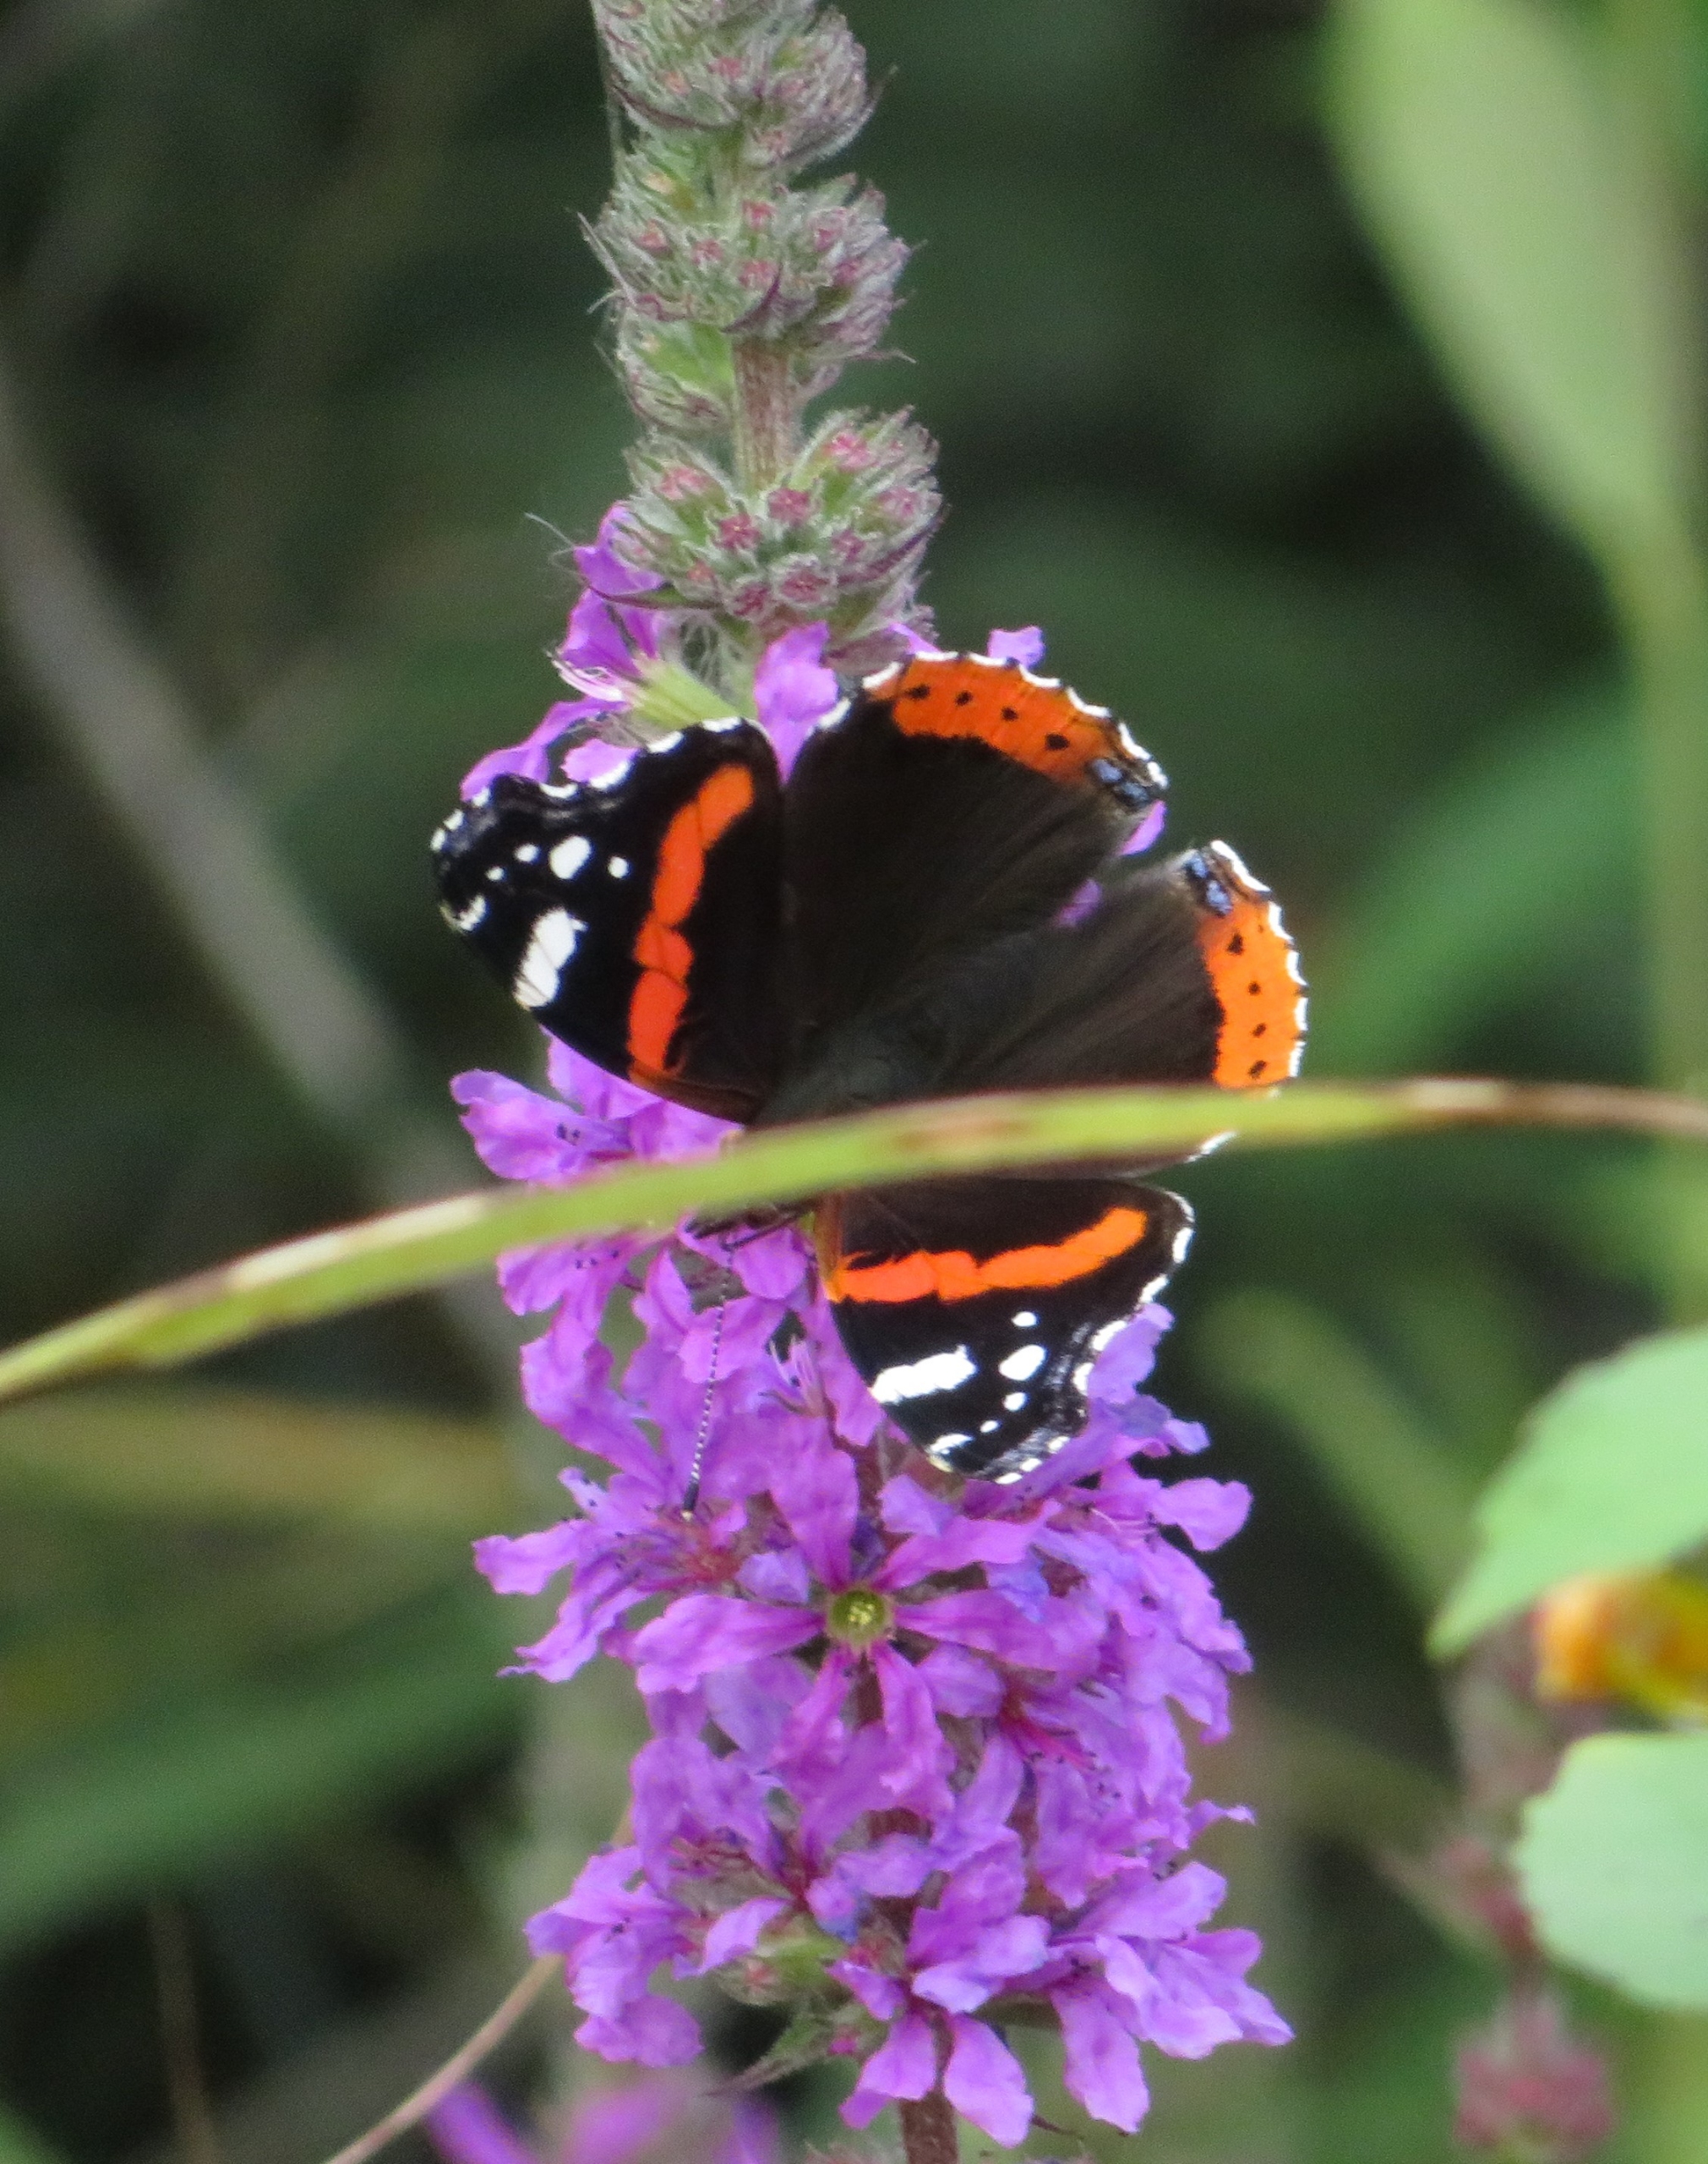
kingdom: Animalia
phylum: Arthropoda
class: Insecta
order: Lepidoptera
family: Nymphalidae
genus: Vanessa
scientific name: Vanessa atalanta
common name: Admiral
